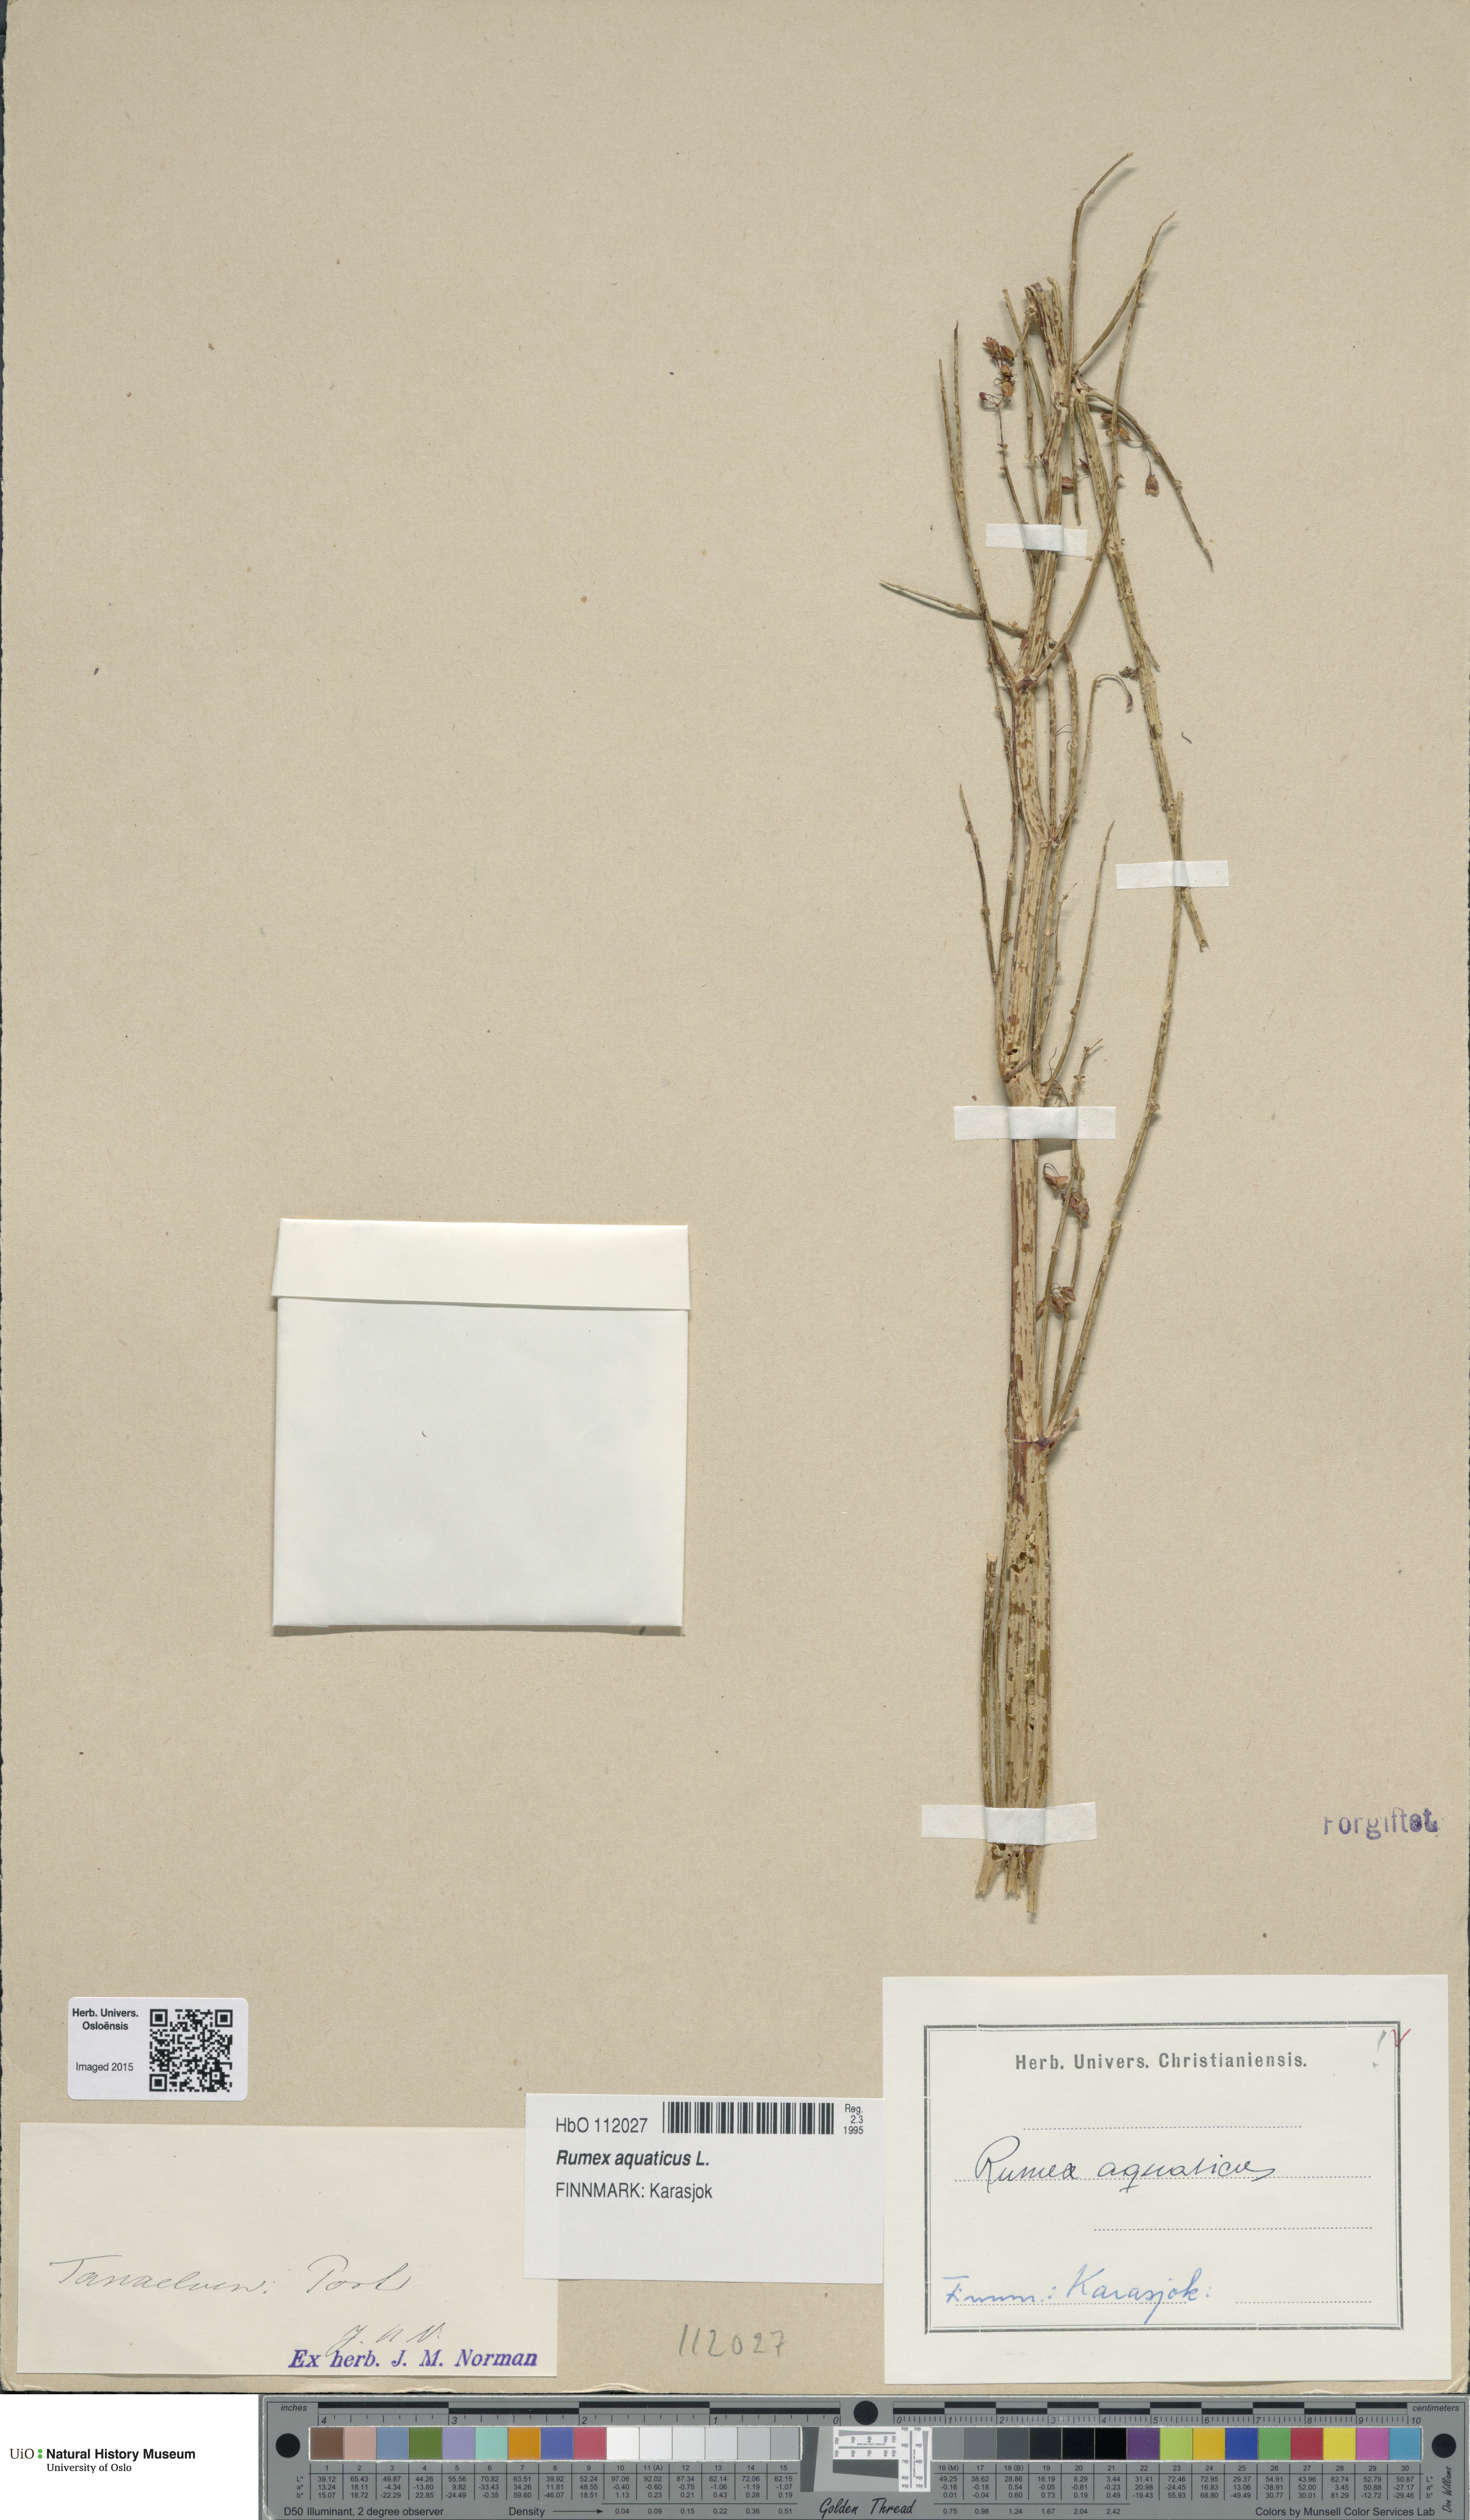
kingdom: Plantae
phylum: Tracheophyta
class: Magnoliopsida
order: Caryophyllales
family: Polygonaceae
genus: Rumex
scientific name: Rumex aquaticus
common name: Scottish dock
